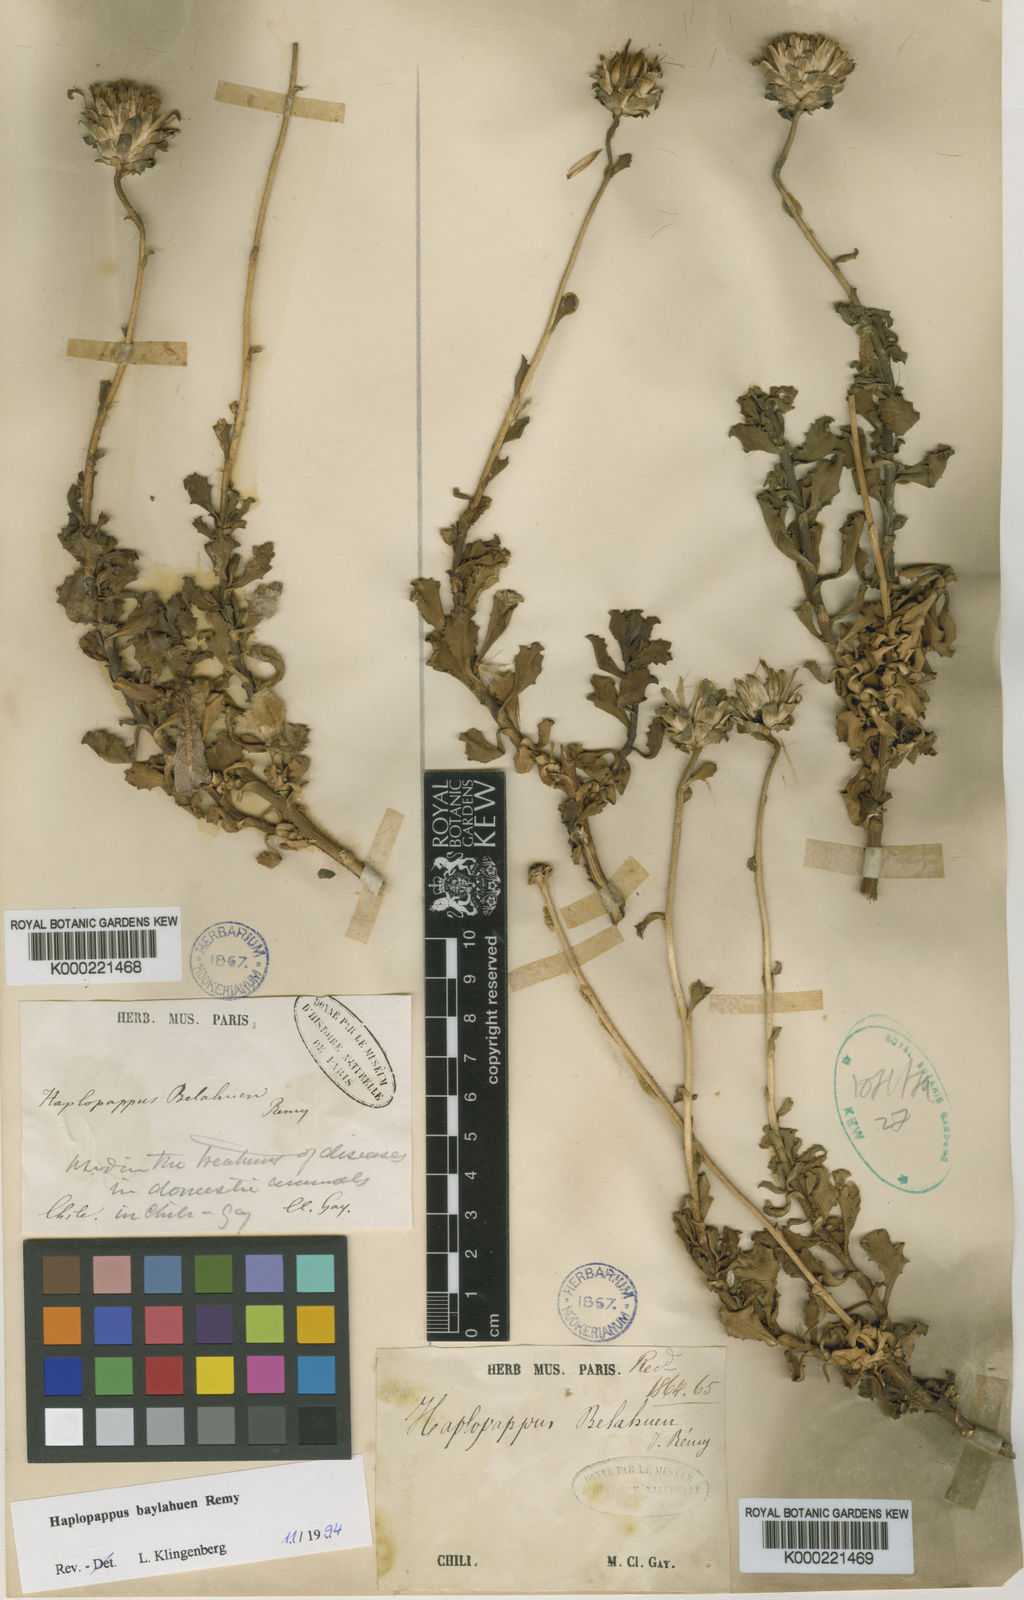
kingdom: Plantae
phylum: Tracheophyta
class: Magnoliopsida
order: Asterales
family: Asteraceae
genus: Haplopappus
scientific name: Haplopappus baylahuen
